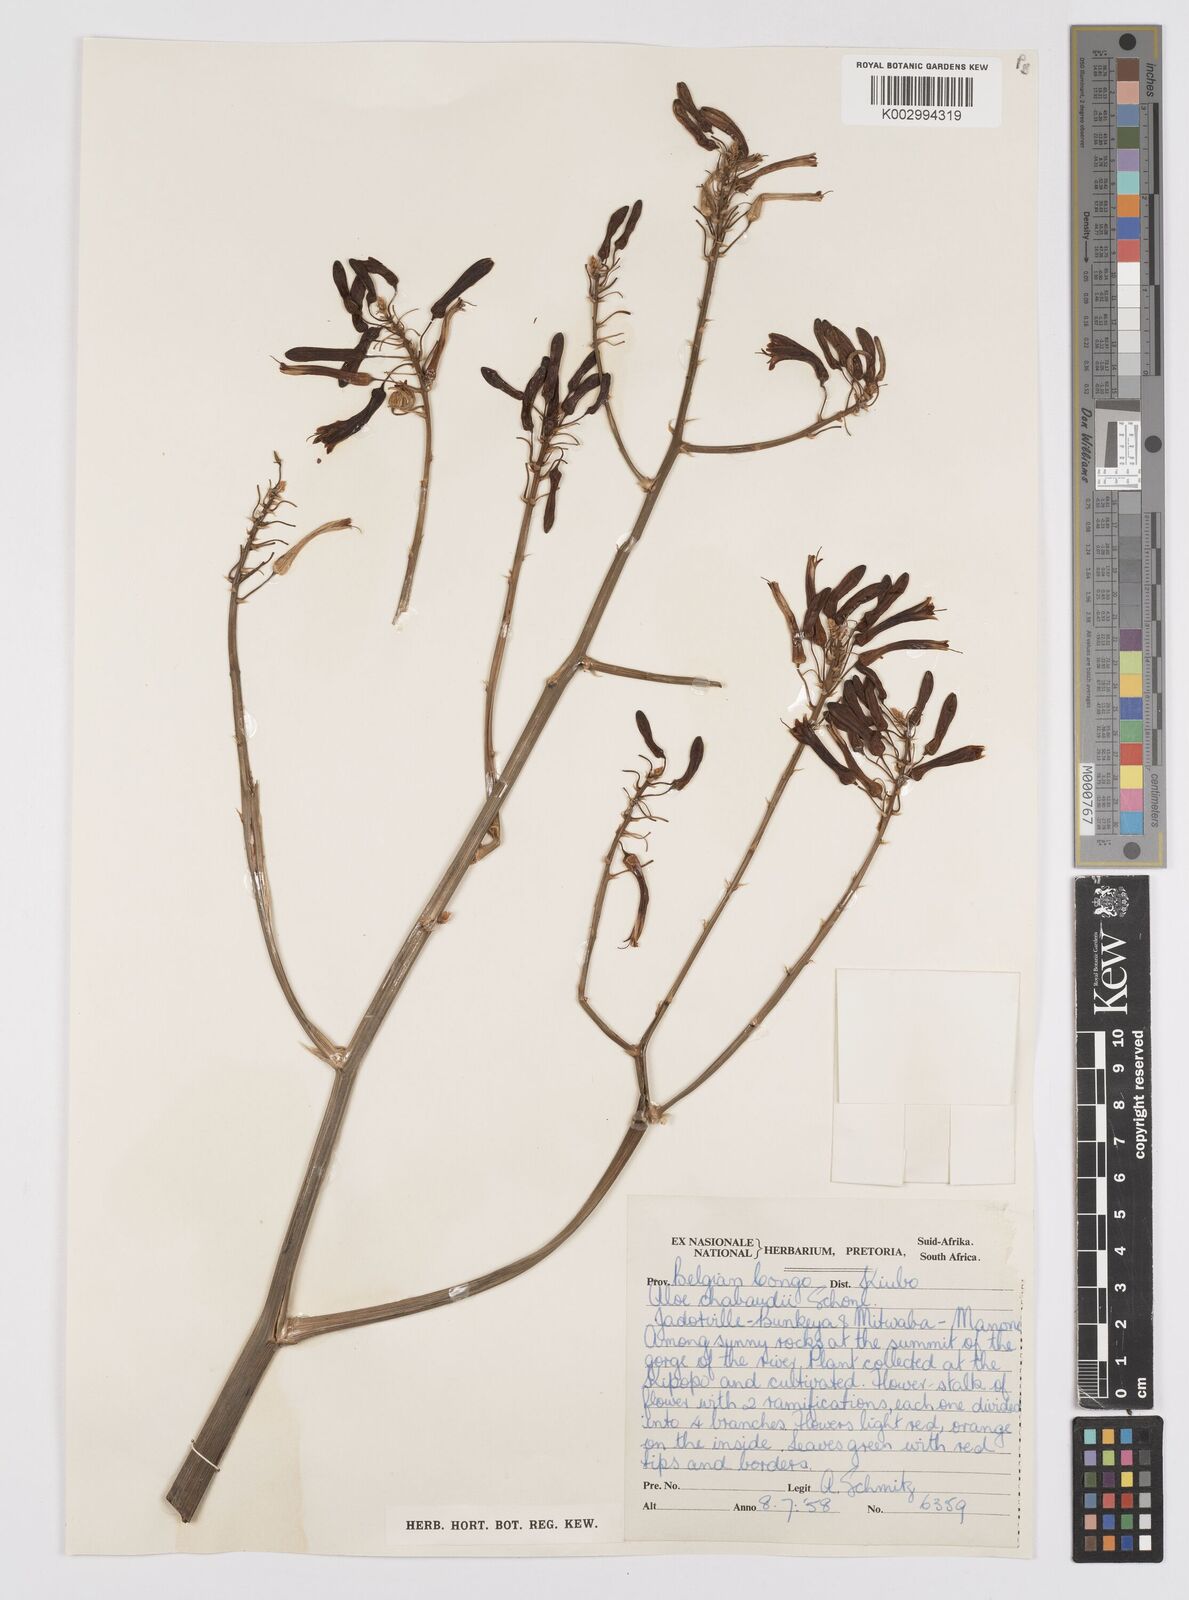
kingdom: Plantae
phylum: Tracheophyta
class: Liliopsida
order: Asparagales
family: Asphodelaceae
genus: Aloe
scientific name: Aloe chabaudii
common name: Chabaud's aloe
